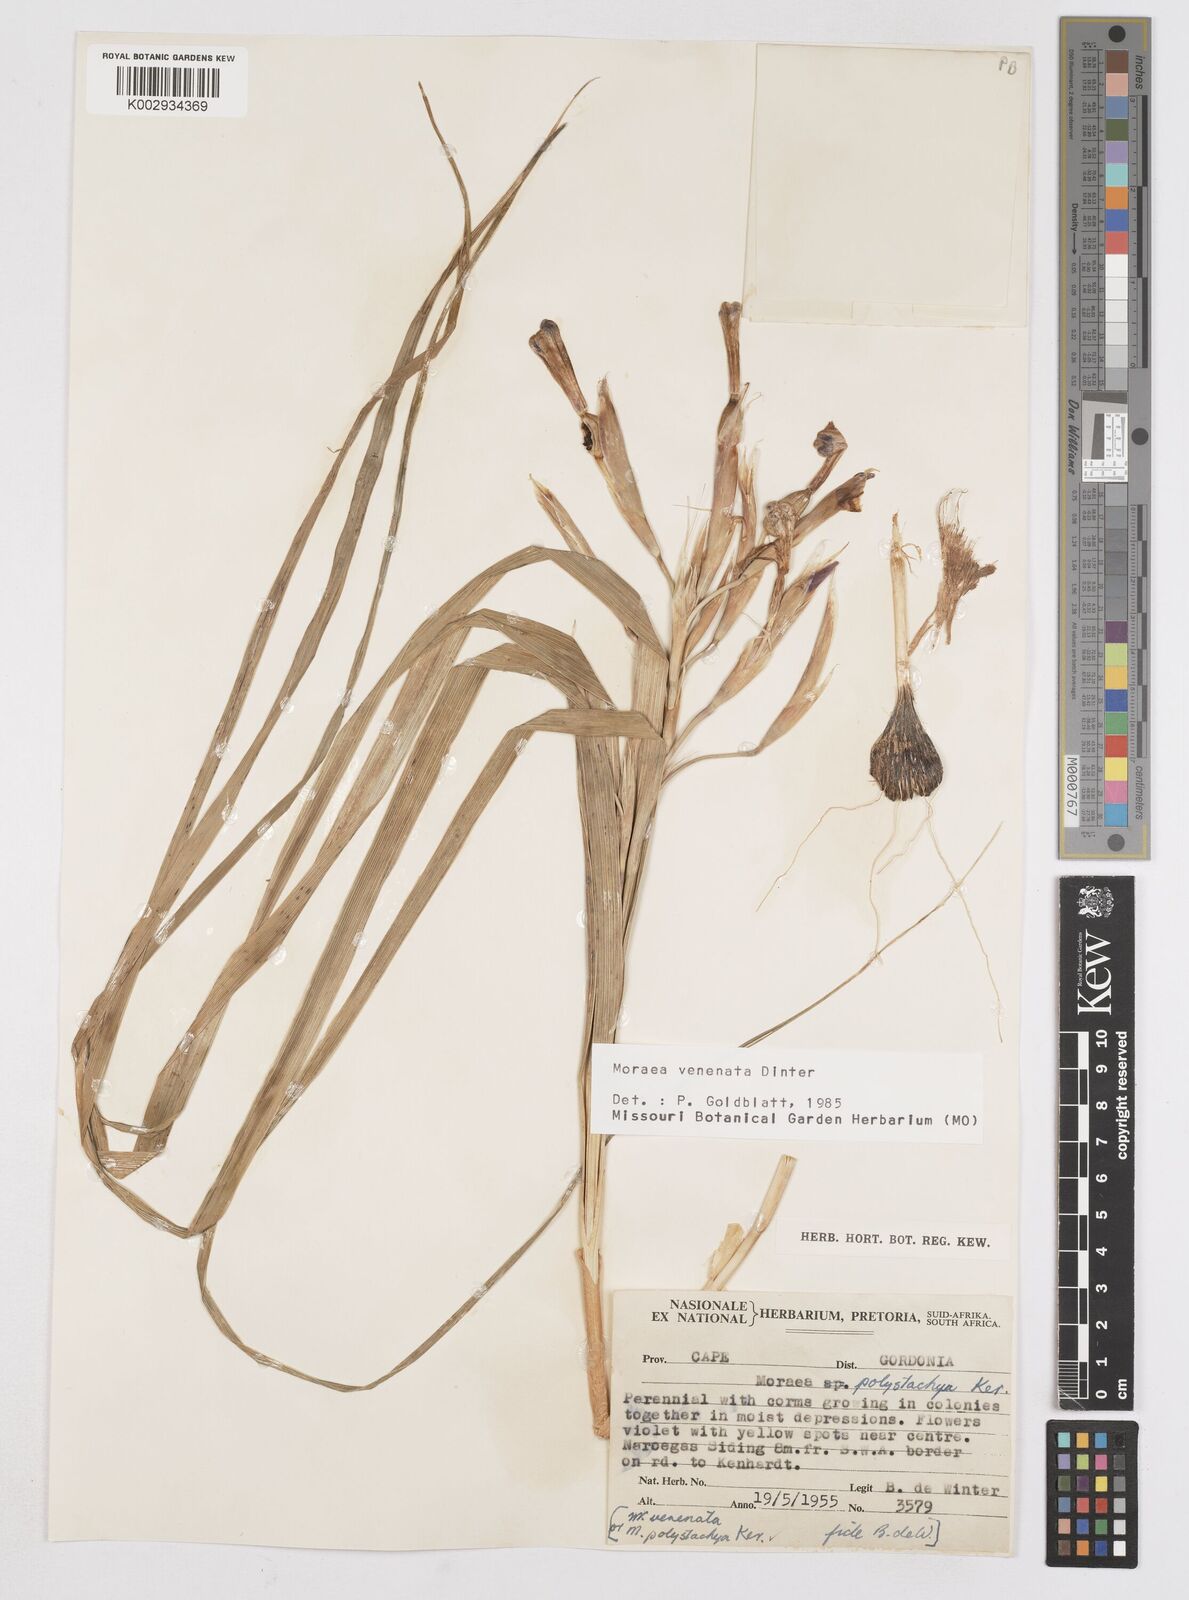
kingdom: Plantae
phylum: Tracheophyta
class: Liliopsida
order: Asparagales
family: Iridaceae
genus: Moraea
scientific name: Moraea venenata
